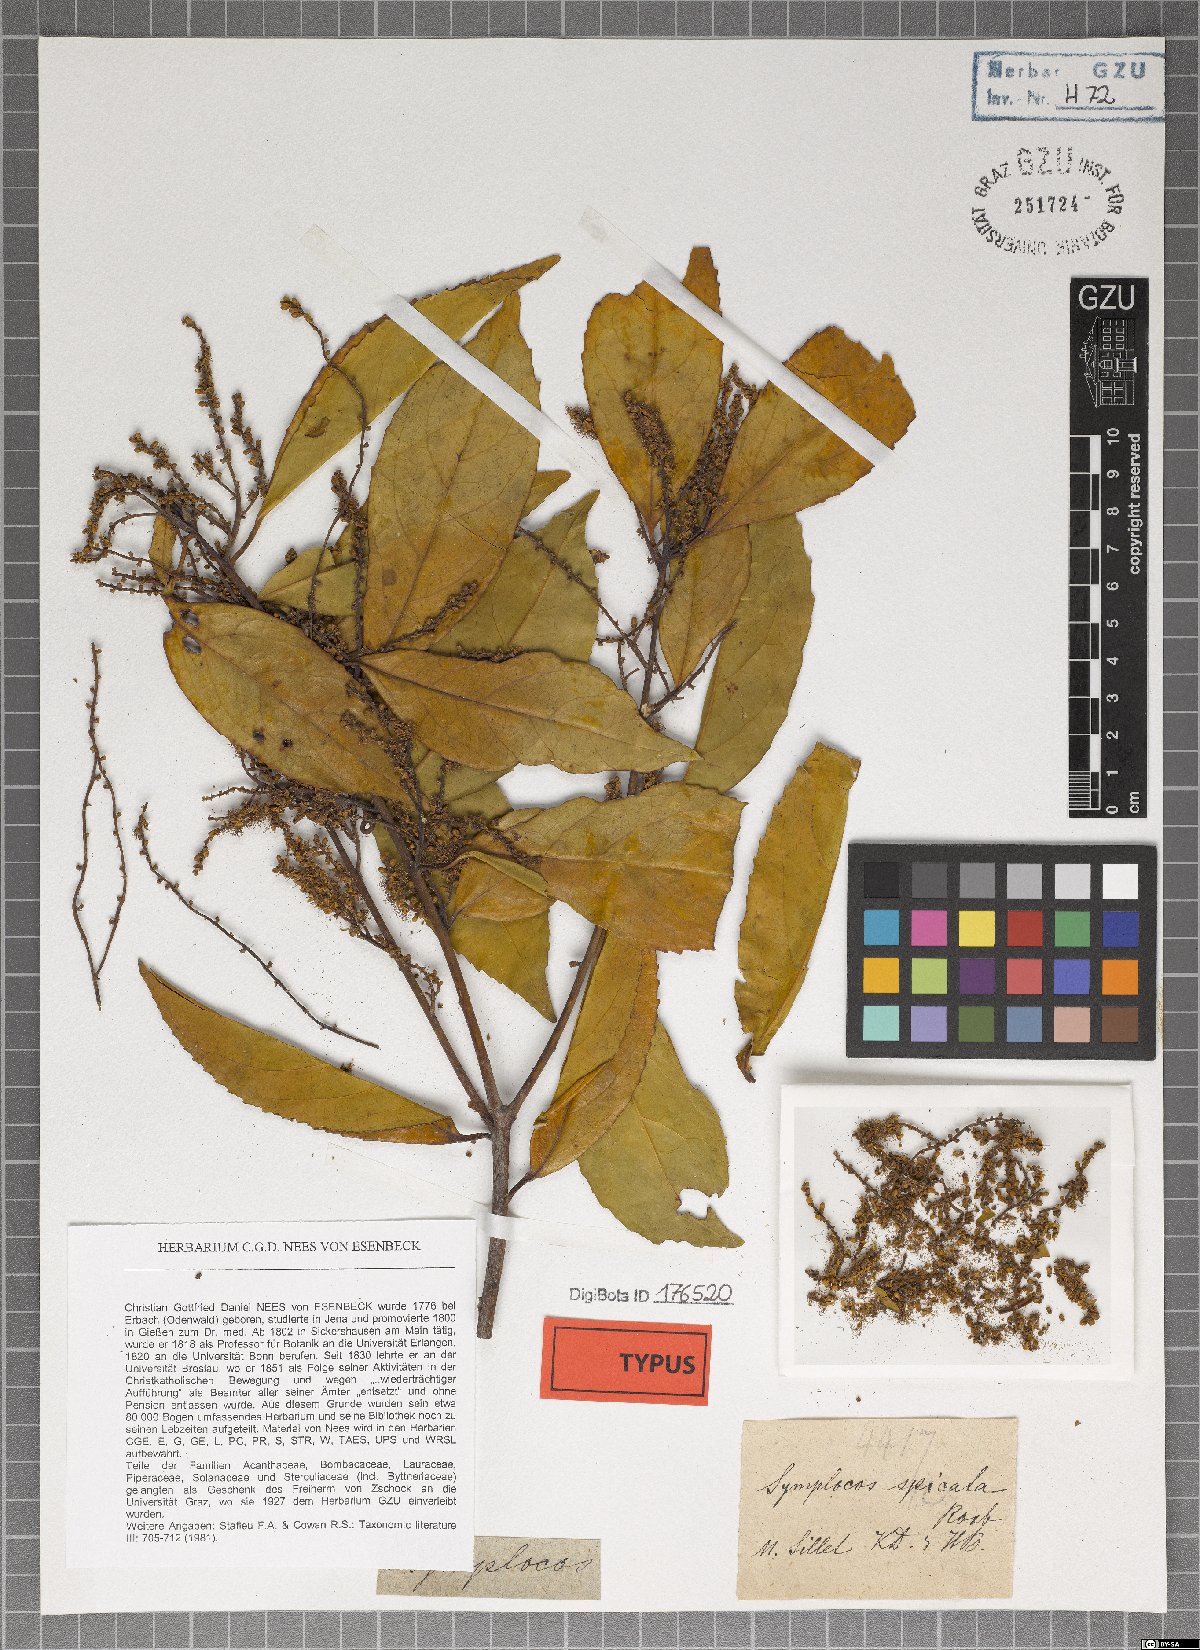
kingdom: Plantae
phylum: Tracheophyta
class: Magnoliopsida
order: Ericales
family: Symplocaceae
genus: Symplocos
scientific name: Symplocos acuminata
